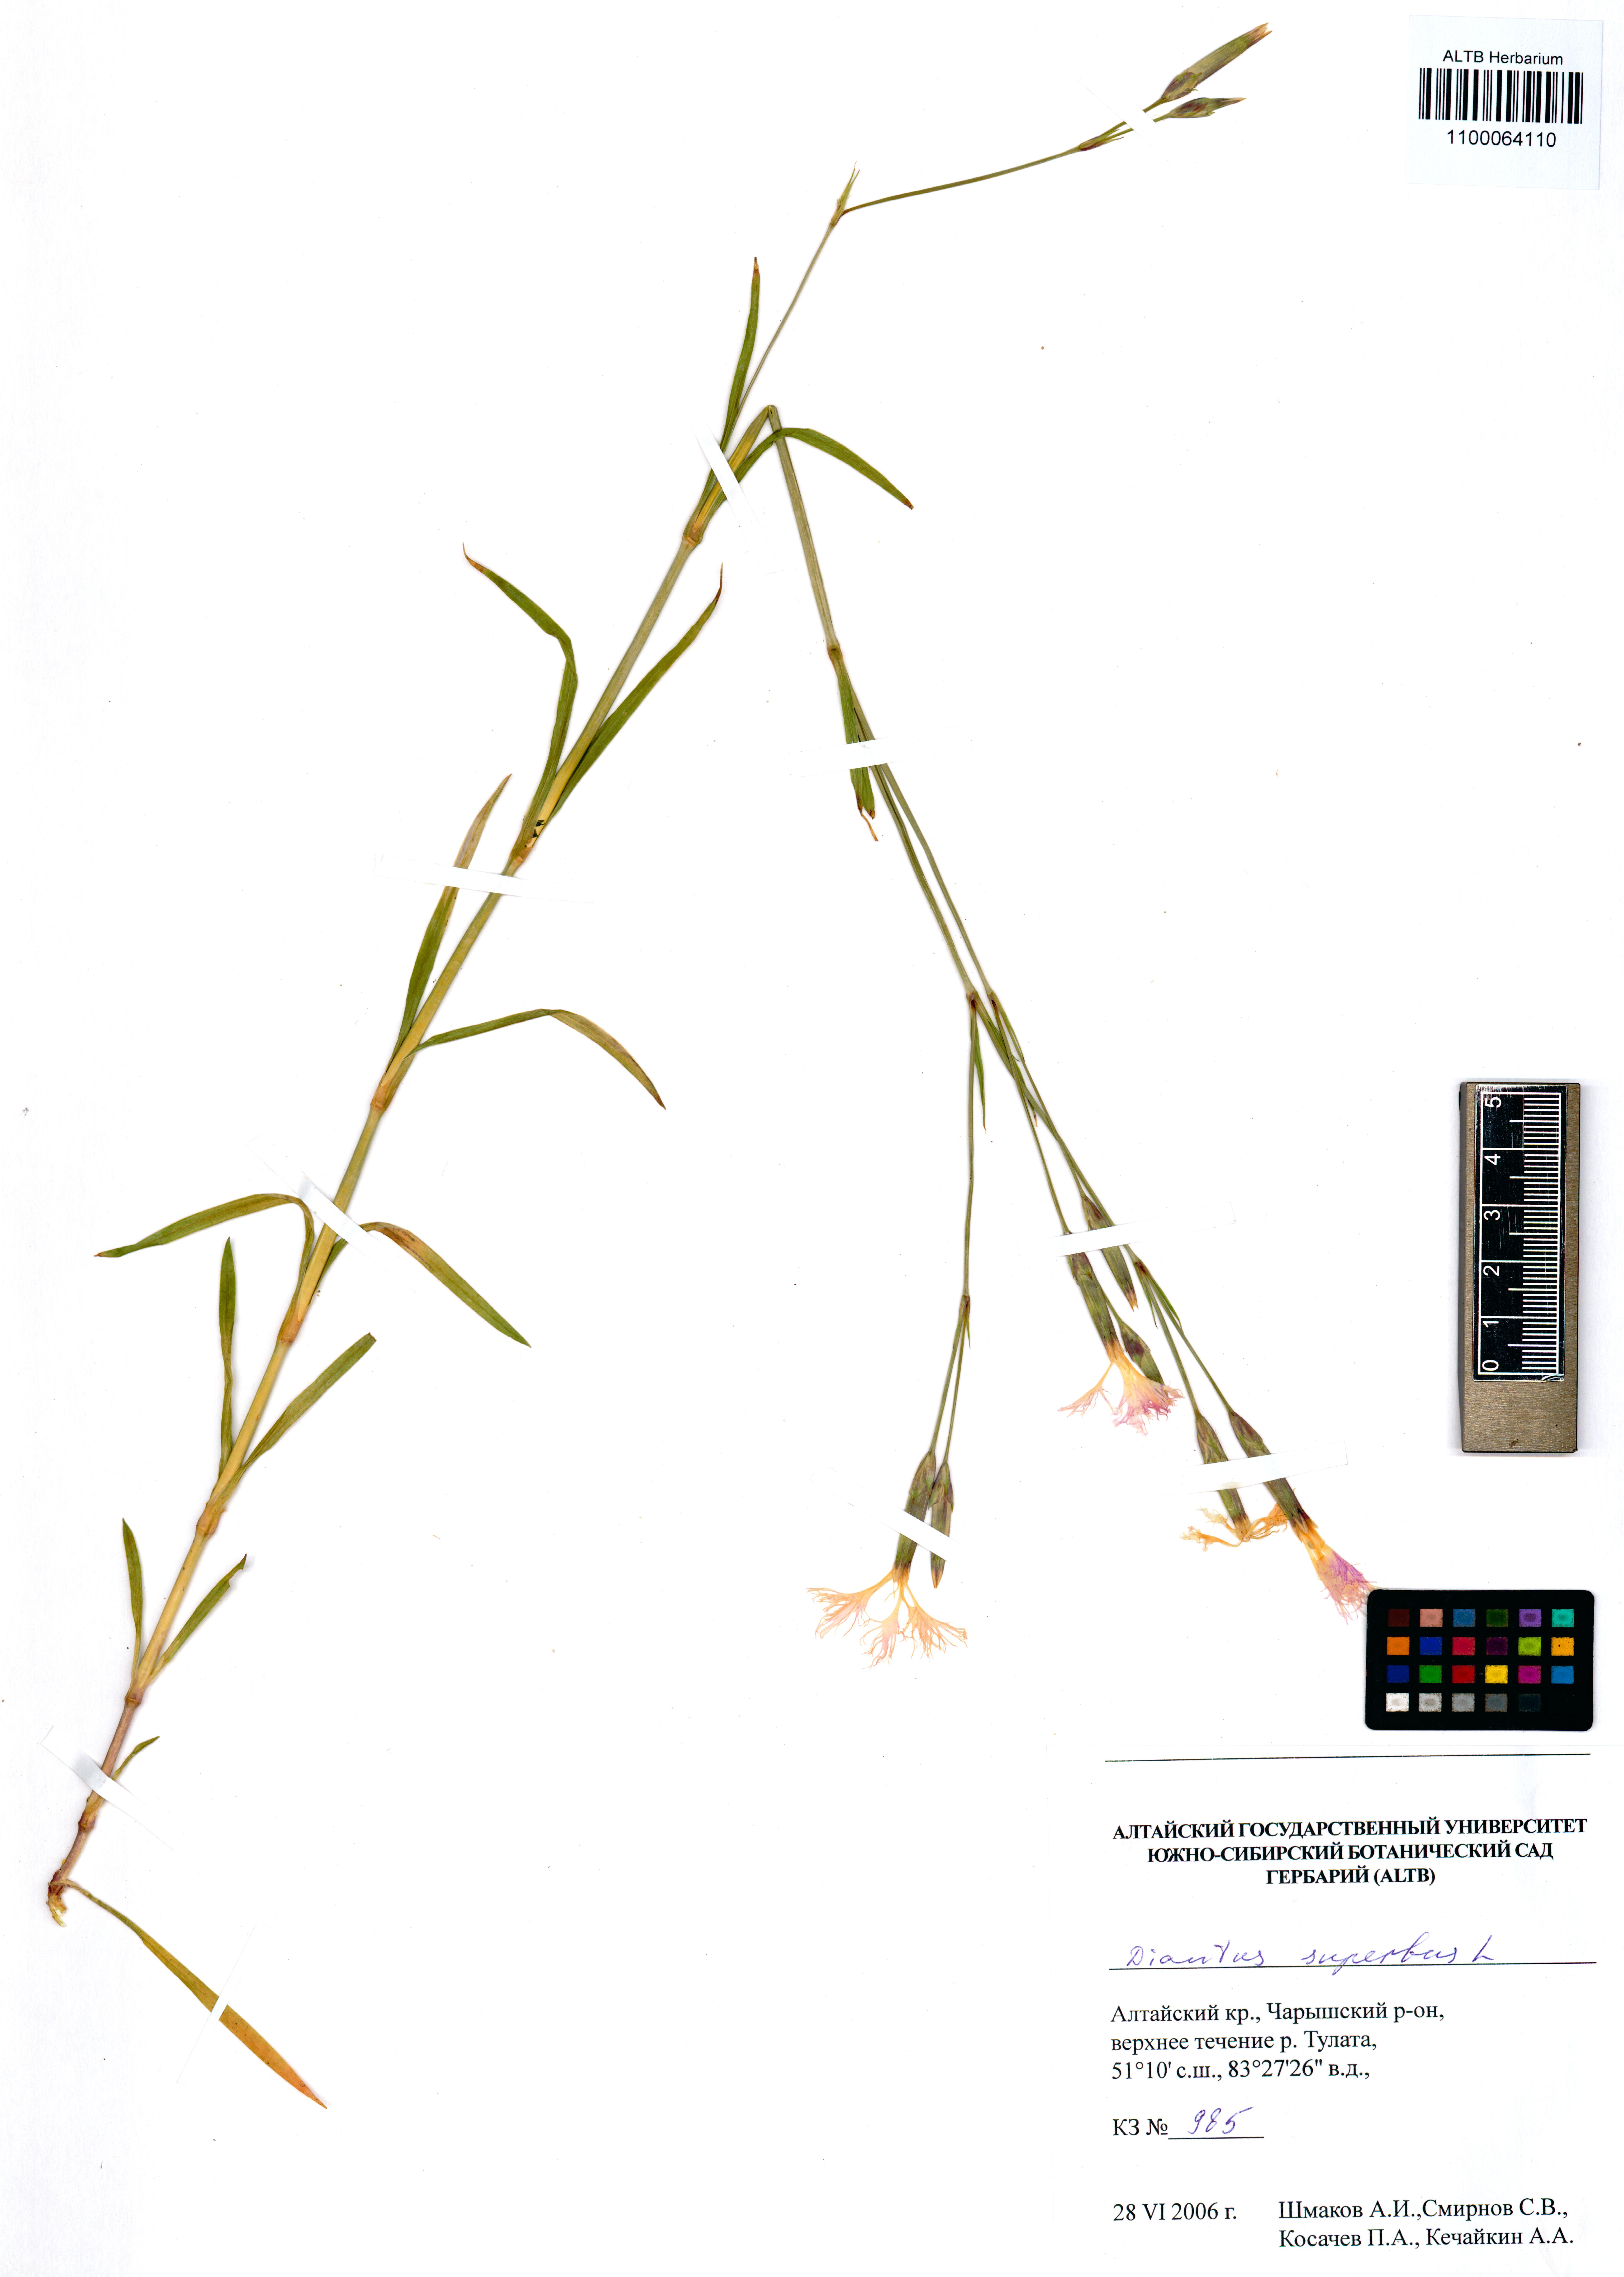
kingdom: Plantae
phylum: Tracheophyta
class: Magnoliopsida
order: Caryophyllales
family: Caryophyllaceae
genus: Dianthus
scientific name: Dianthus superbus
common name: Fringed pink
